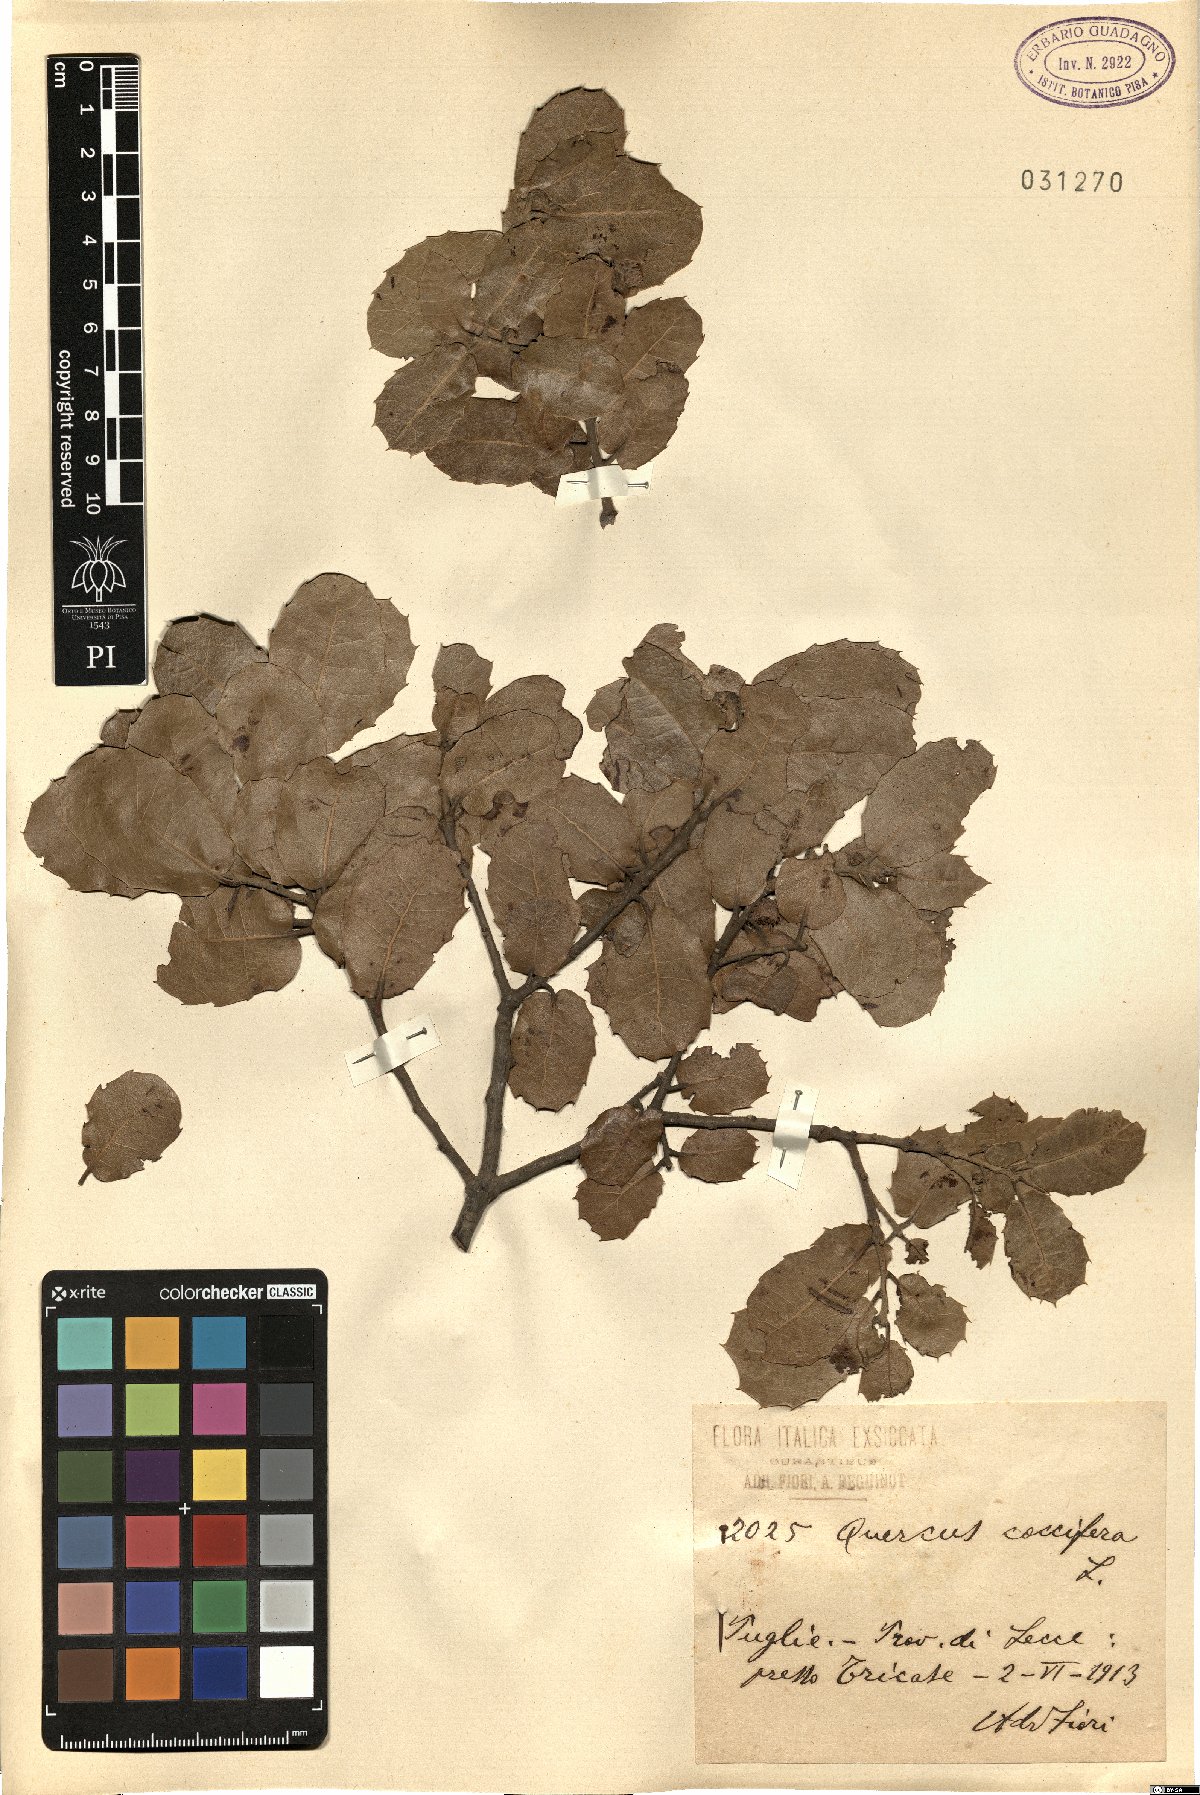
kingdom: Plantae
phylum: Tracheophyta
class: Magnoliopsida
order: Fagales
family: Fagaceae
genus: Quercus
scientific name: Quercus coccifera
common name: Kermes oak
